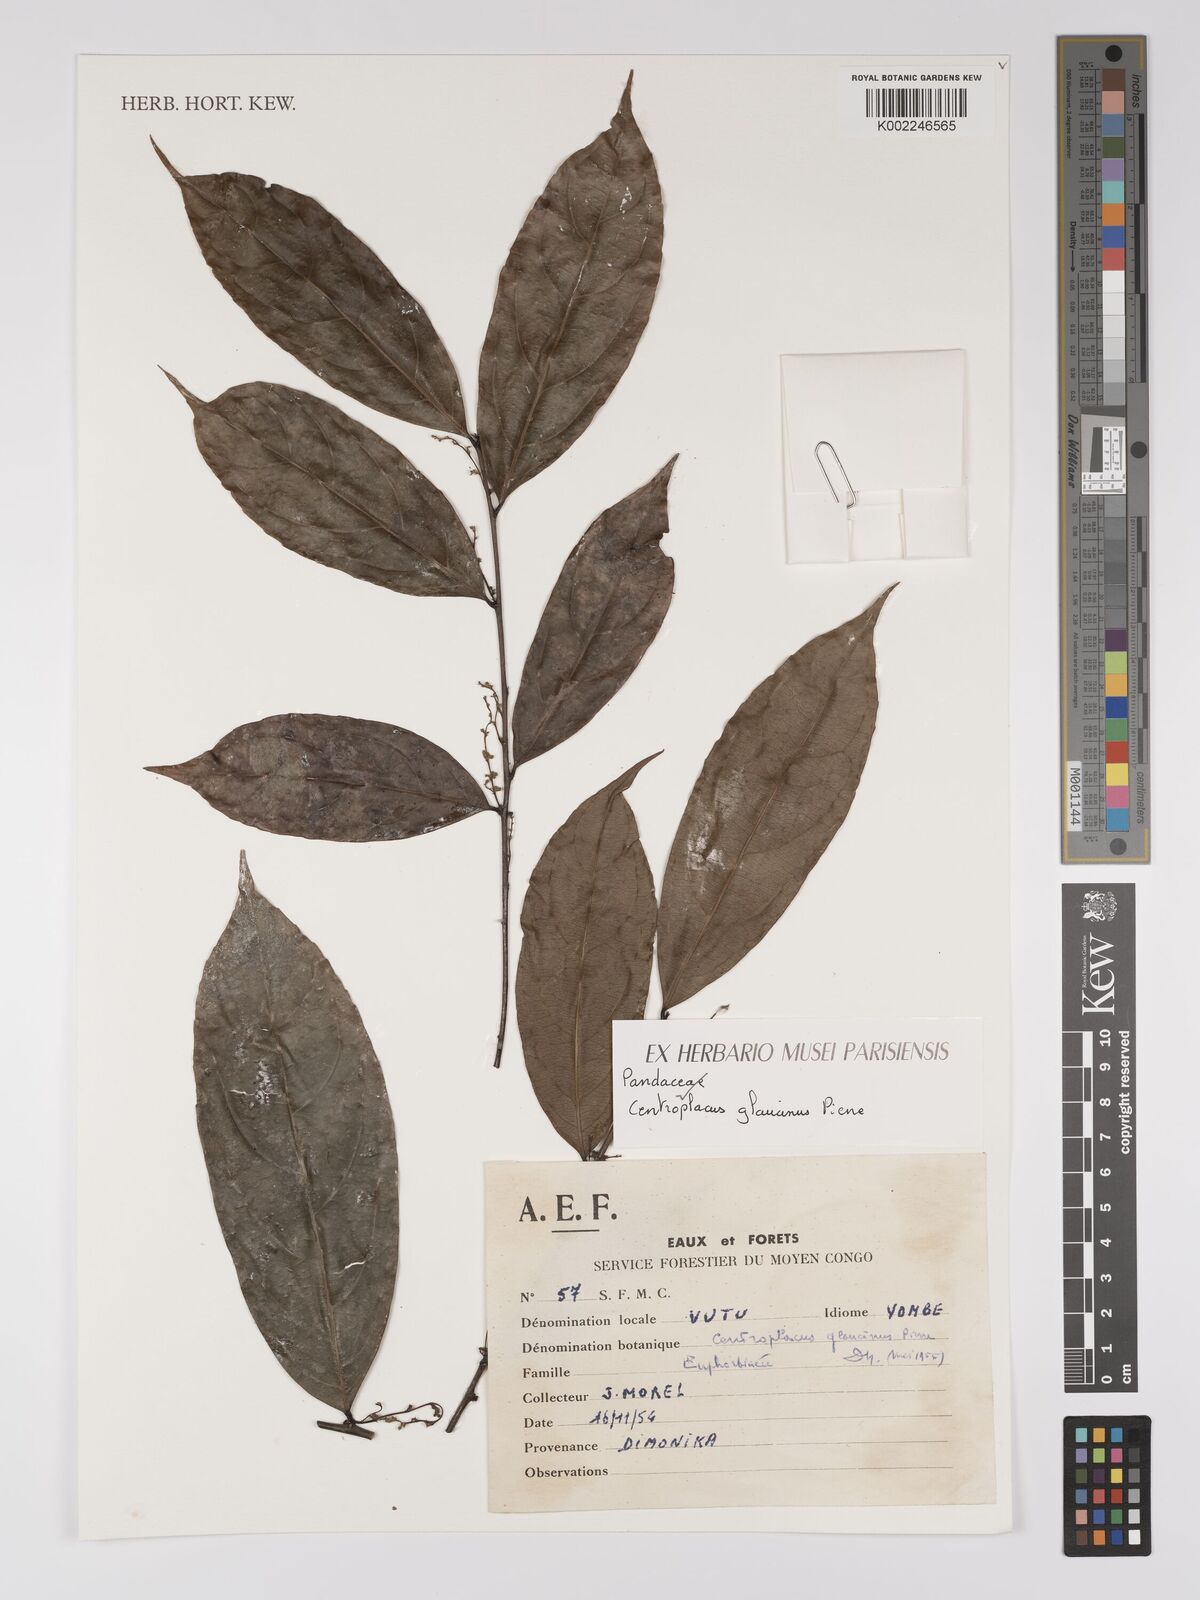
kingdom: Plantae
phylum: Tracheophyta
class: Magnoliopsida
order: Malpighiales
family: Centroplacaceae
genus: Centroplacus
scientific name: Centroplacus glaucinus
